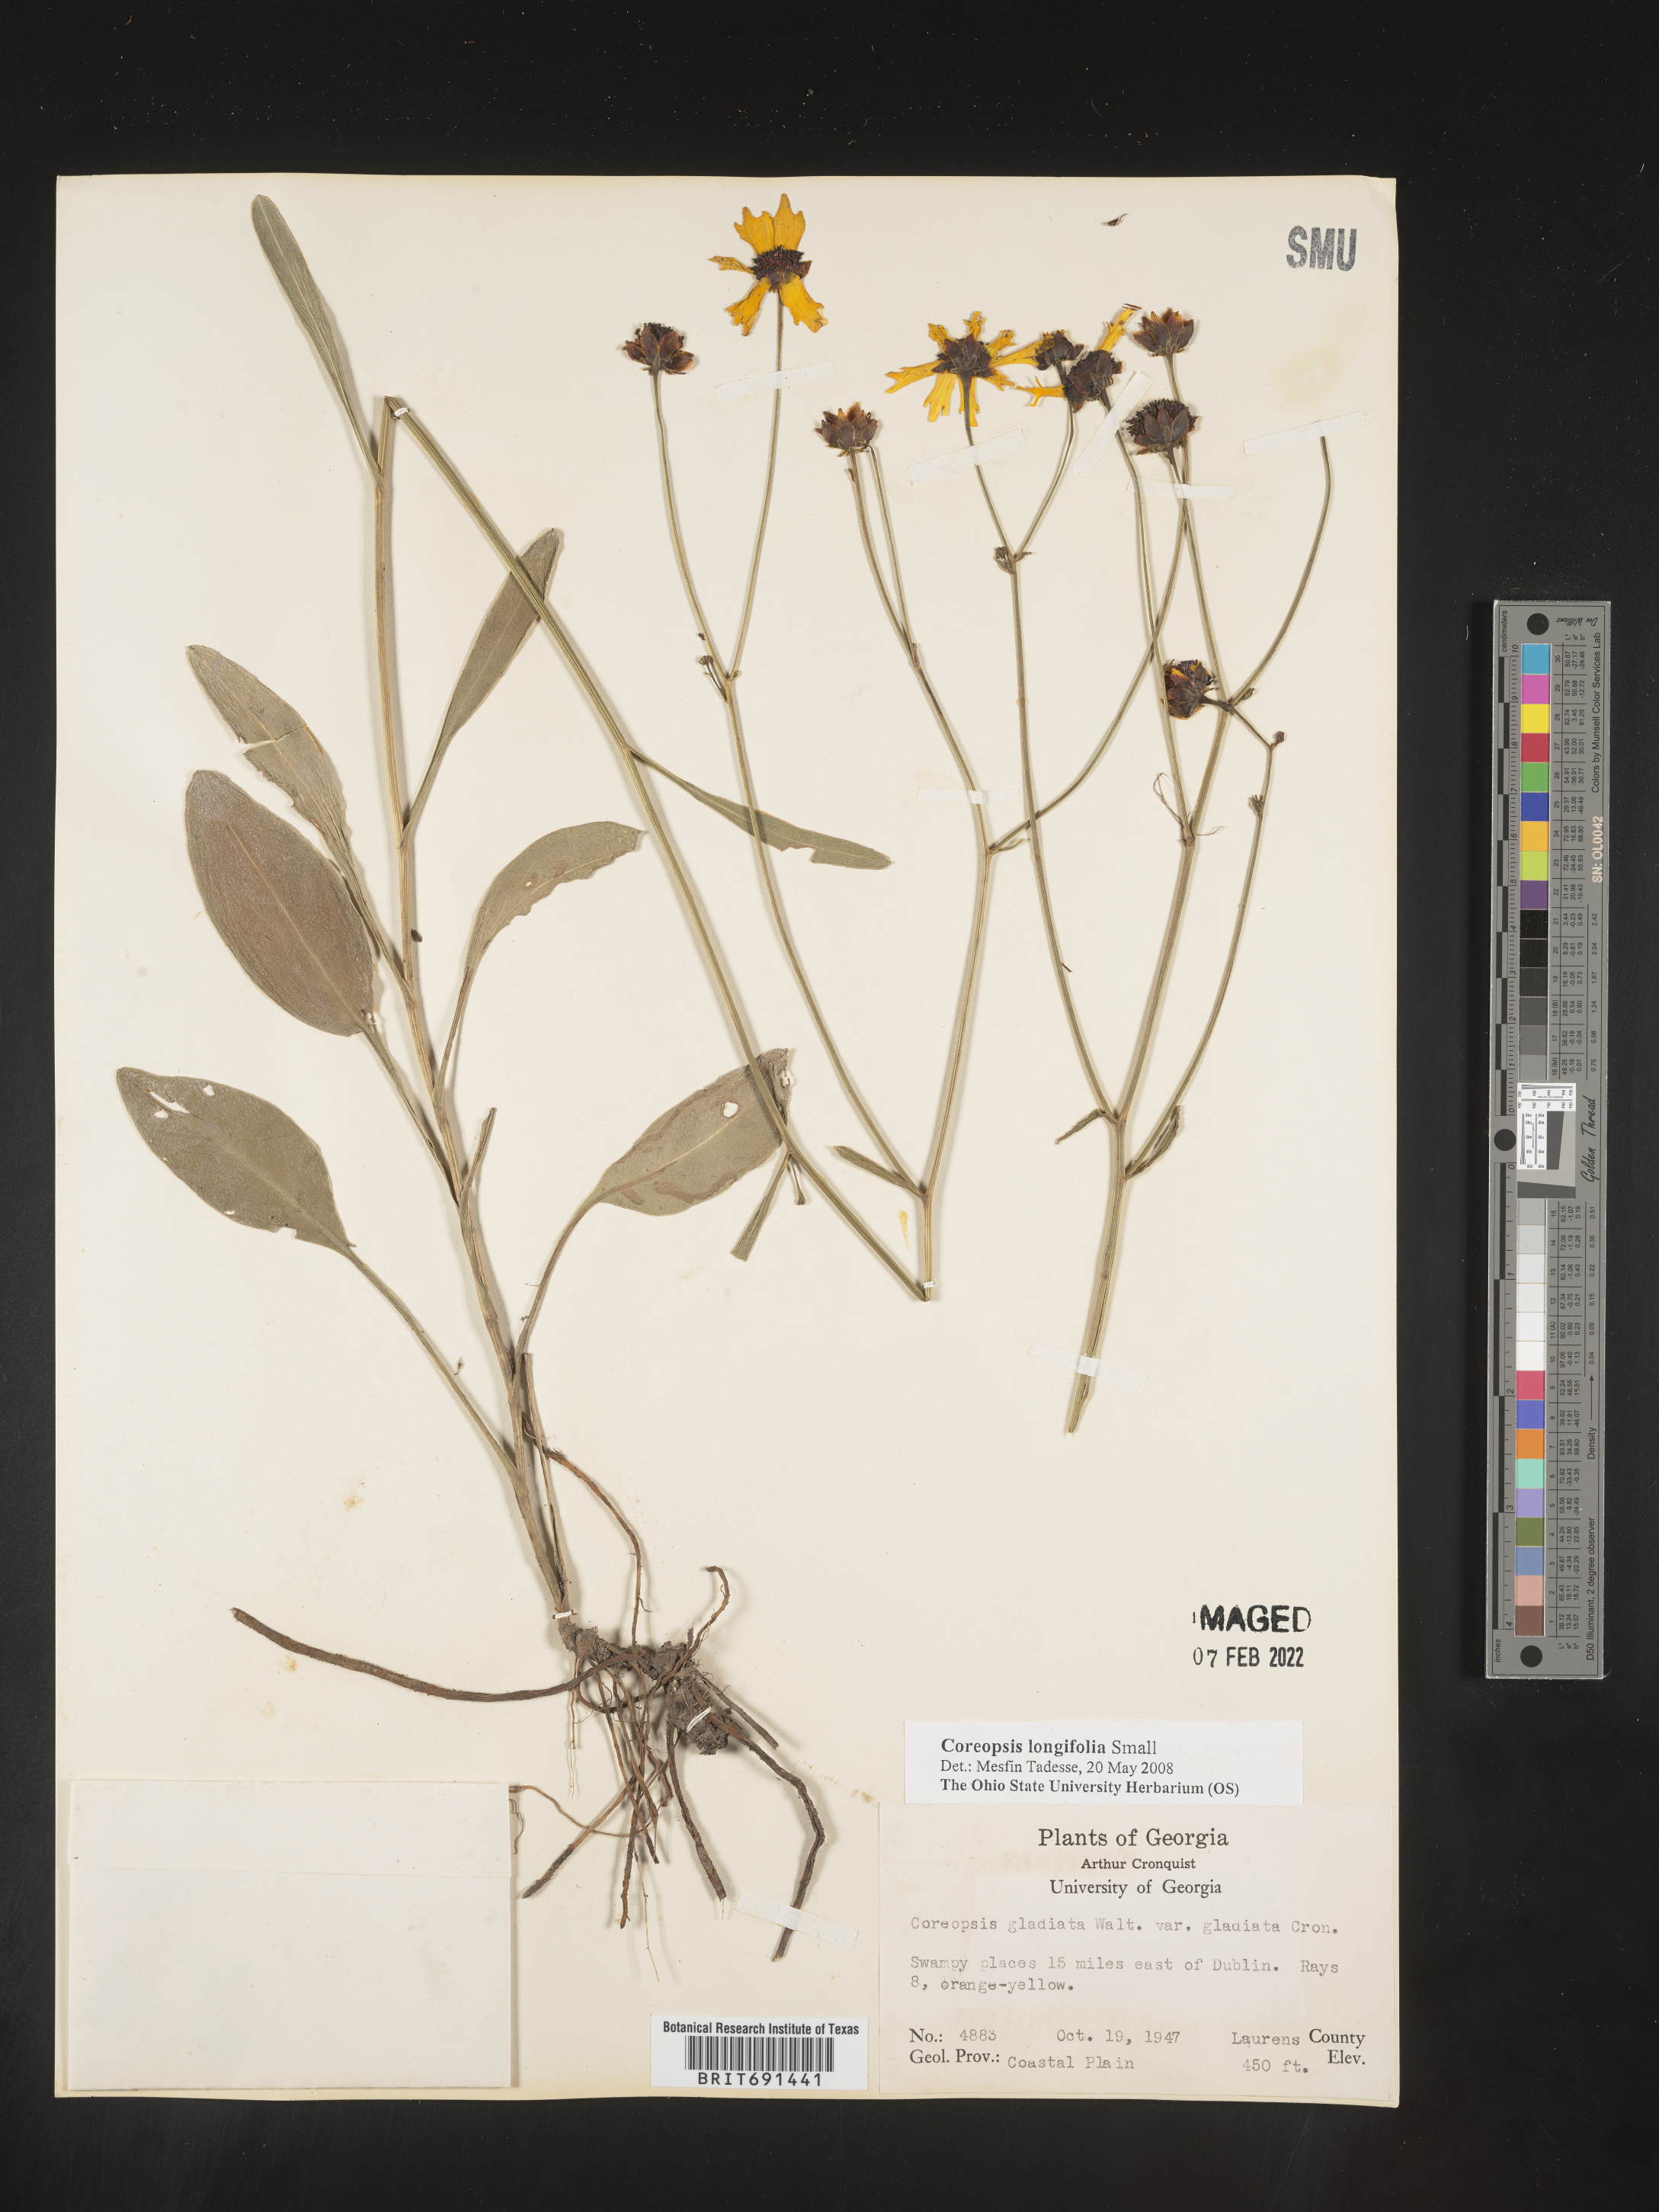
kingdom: Plantae
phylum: Tracheophyta
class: Magnoliopsida
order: Asterales
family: Asteraceae
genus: Coreopsis
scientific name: Coreopsis gladiata
